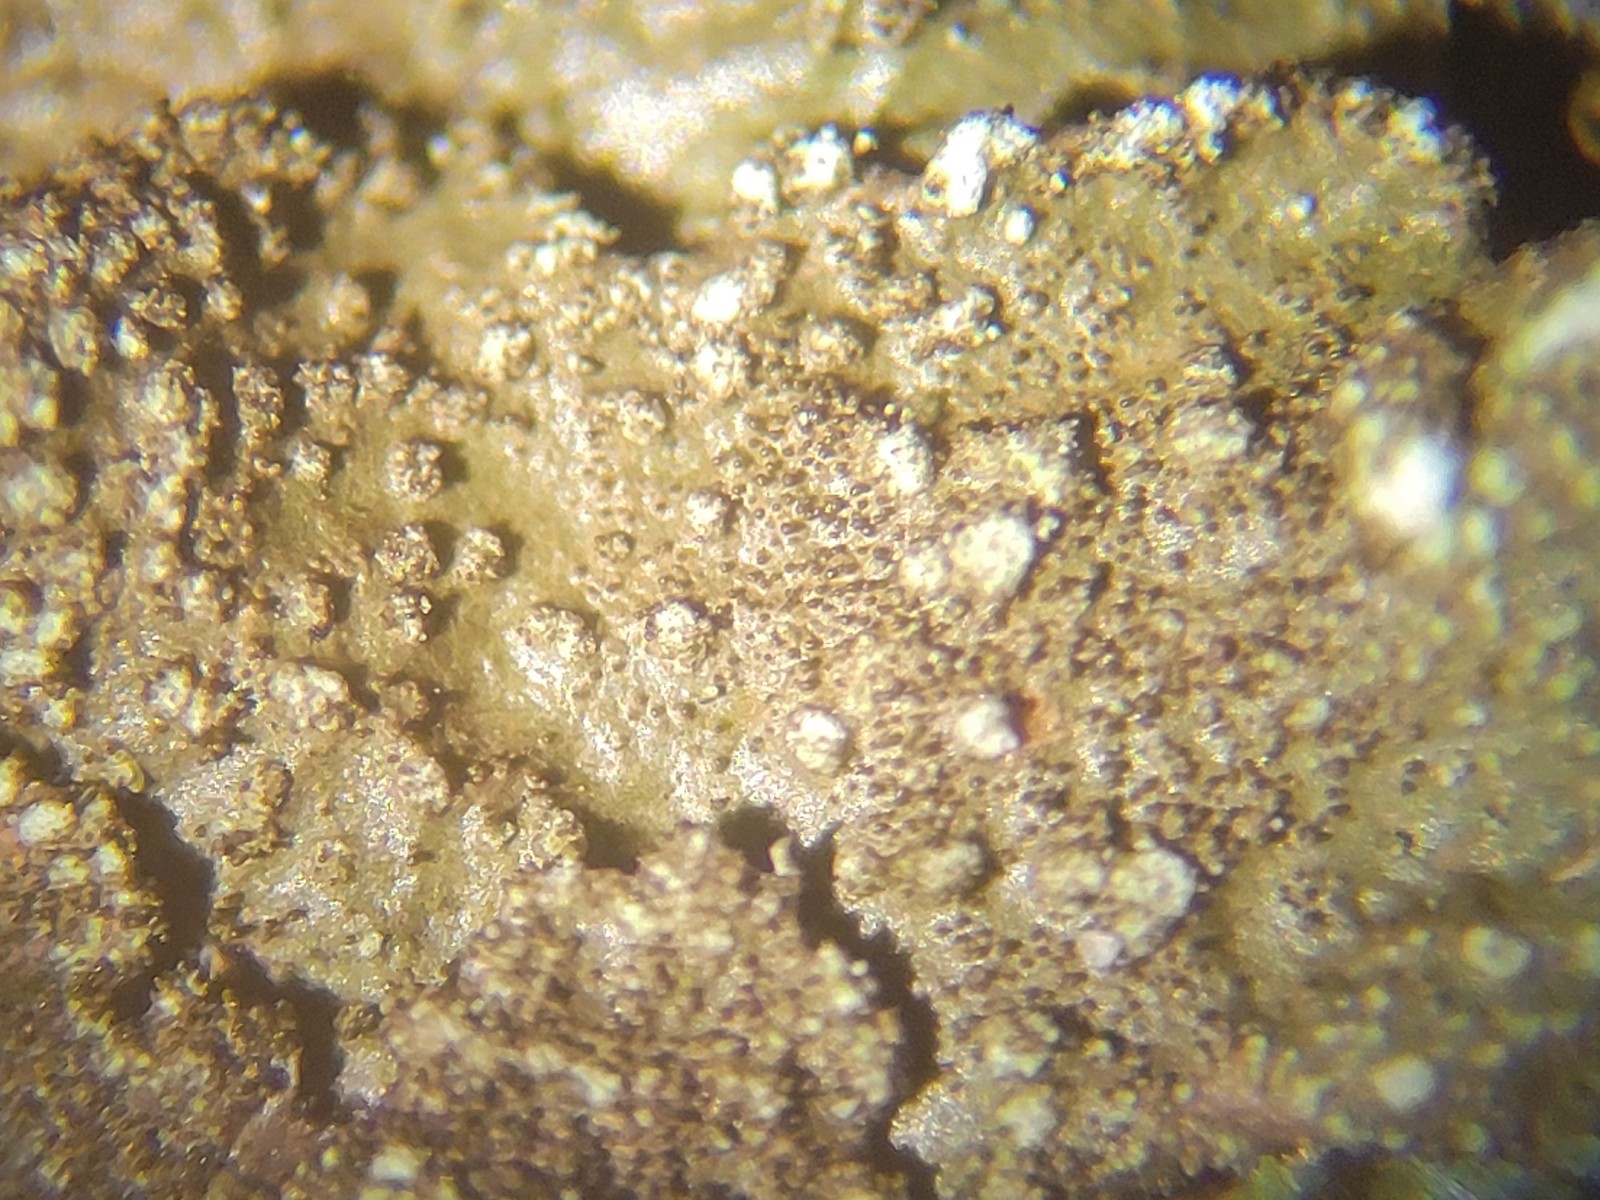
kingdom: Fungi
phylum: Ascomycota
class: Lecanoromycetes
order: Lecanorales
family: Parmeliaceae
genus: Melanelixia
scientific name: Melanelixia subaurifera
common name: guldpudret skållav
